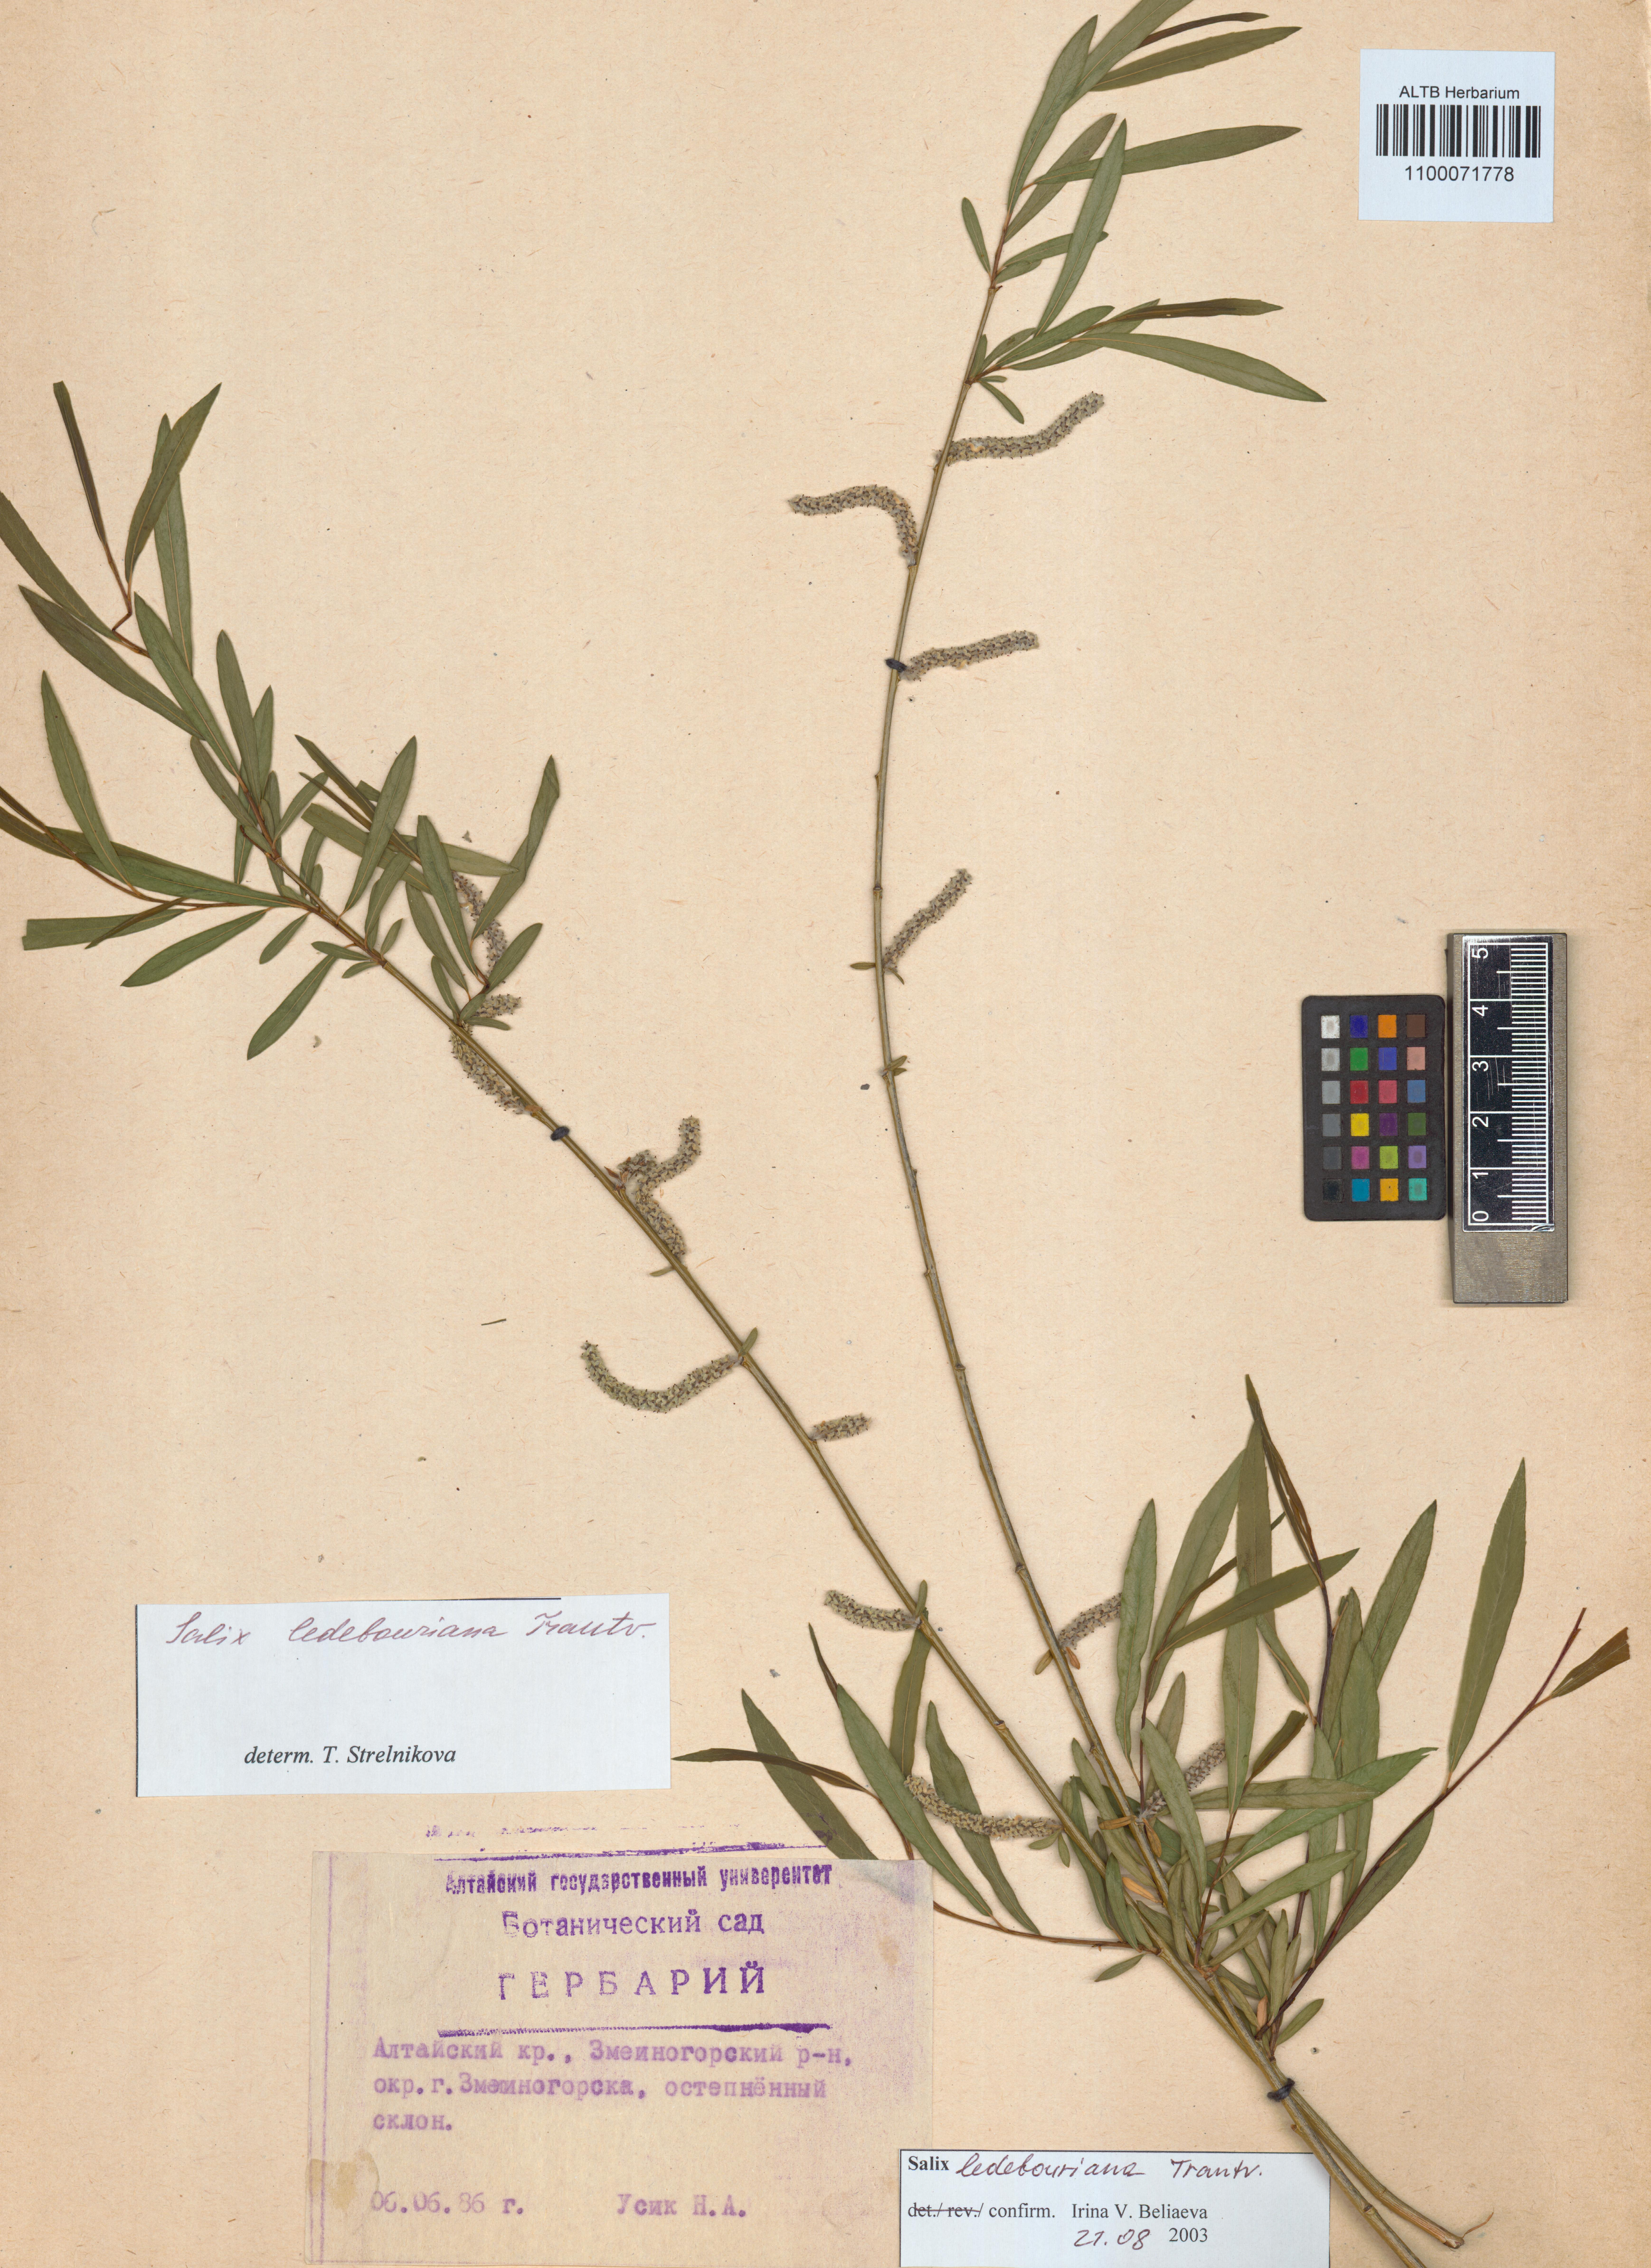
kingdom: Plantae
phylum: Tracheophyta
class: Magnoliopsida
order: Malpighiales
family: Salicaceae
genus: Salix
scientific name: Salix ledebouriana
